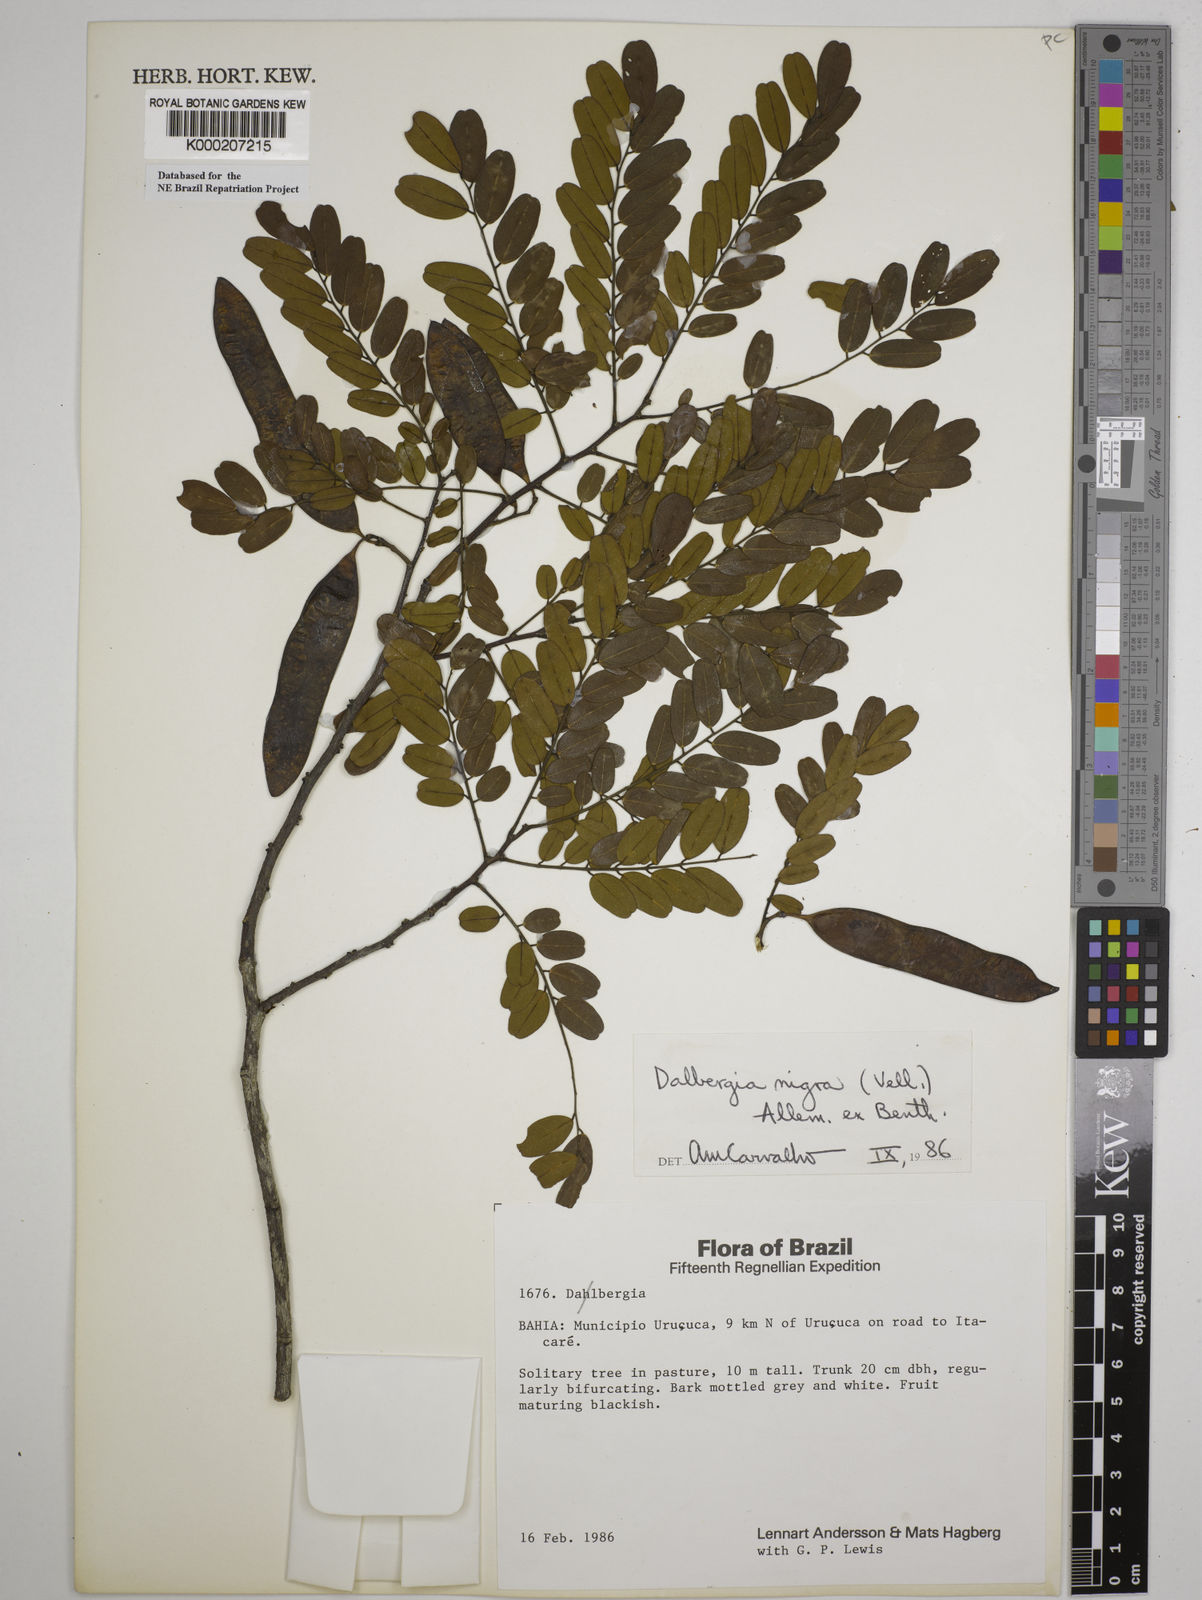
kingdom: Plantae
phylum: Tracheophyta
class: Magnoliopsida
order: Fabales
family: Fabaceae
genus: Dalbergia
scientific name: Dalbergia nigra
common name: Bahia rosewood
